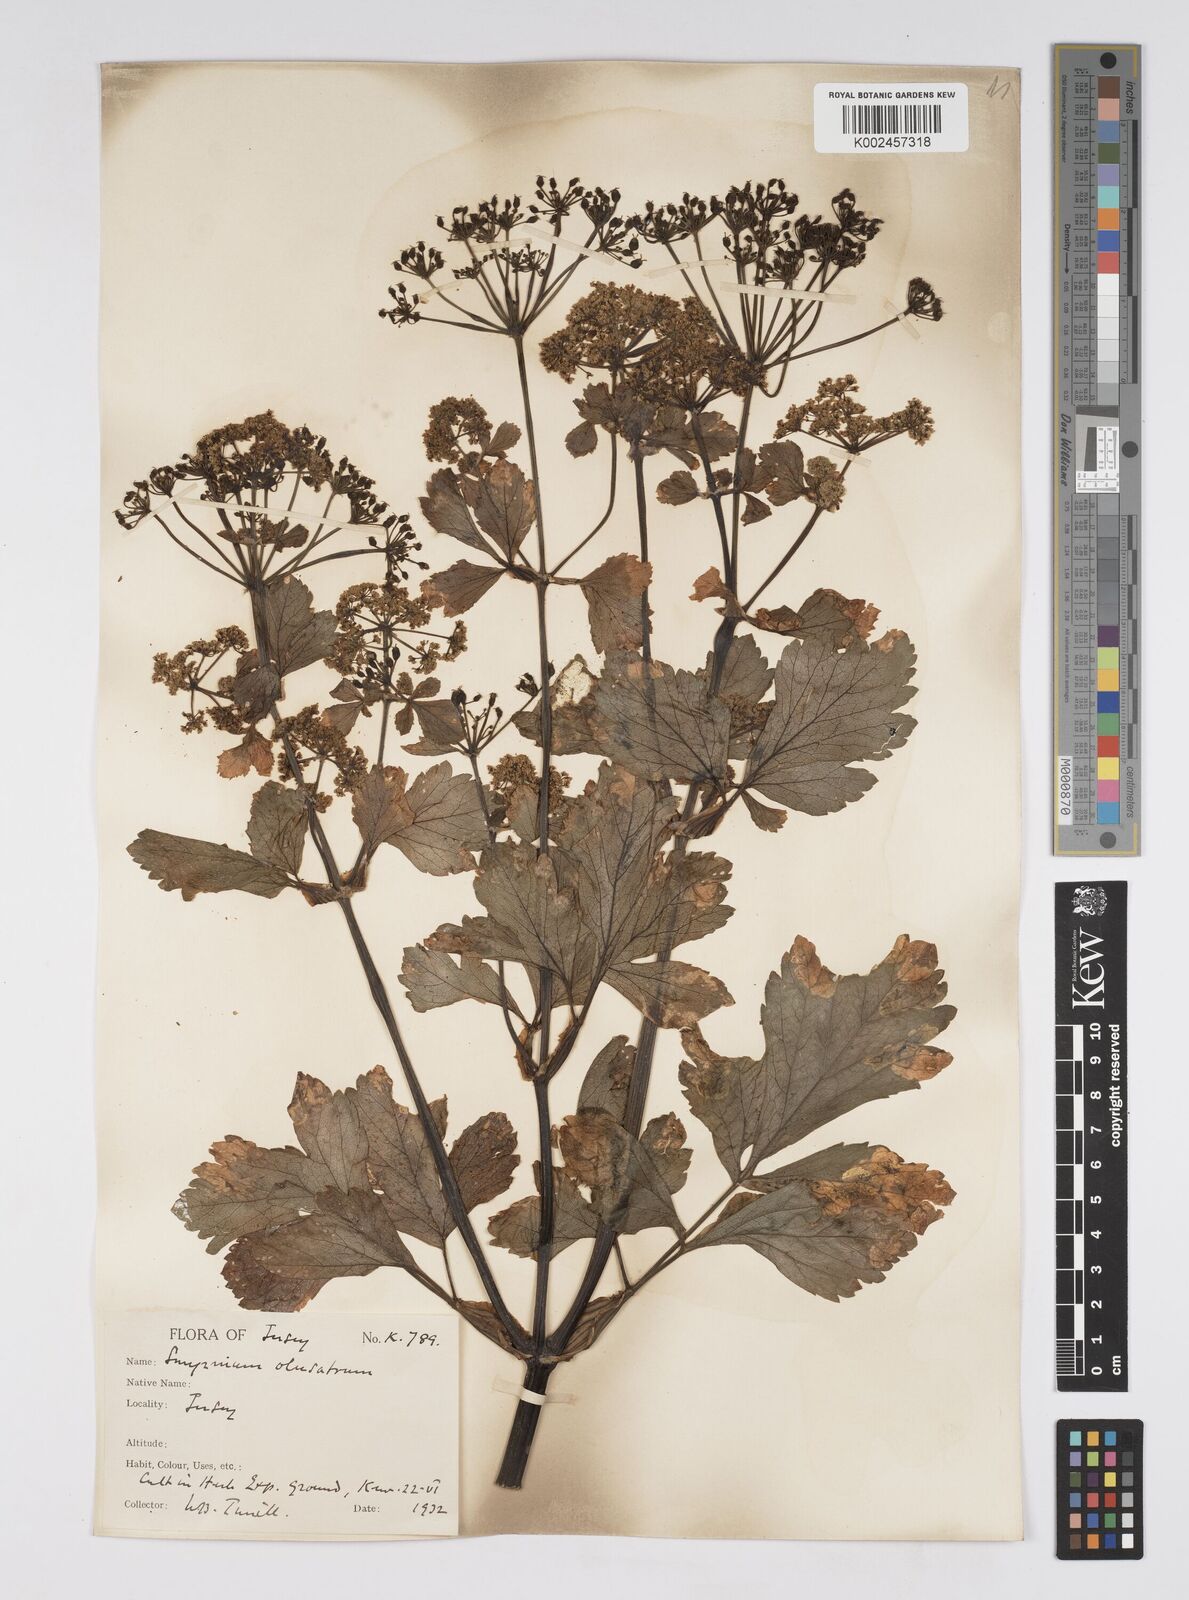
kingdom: Plantae
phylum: Tracheophyta
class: Magnoliopsida
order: Apiales
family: Apiaceae
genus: Smyrnium
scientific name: Smyrnium olusatrum
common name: Alexanders
